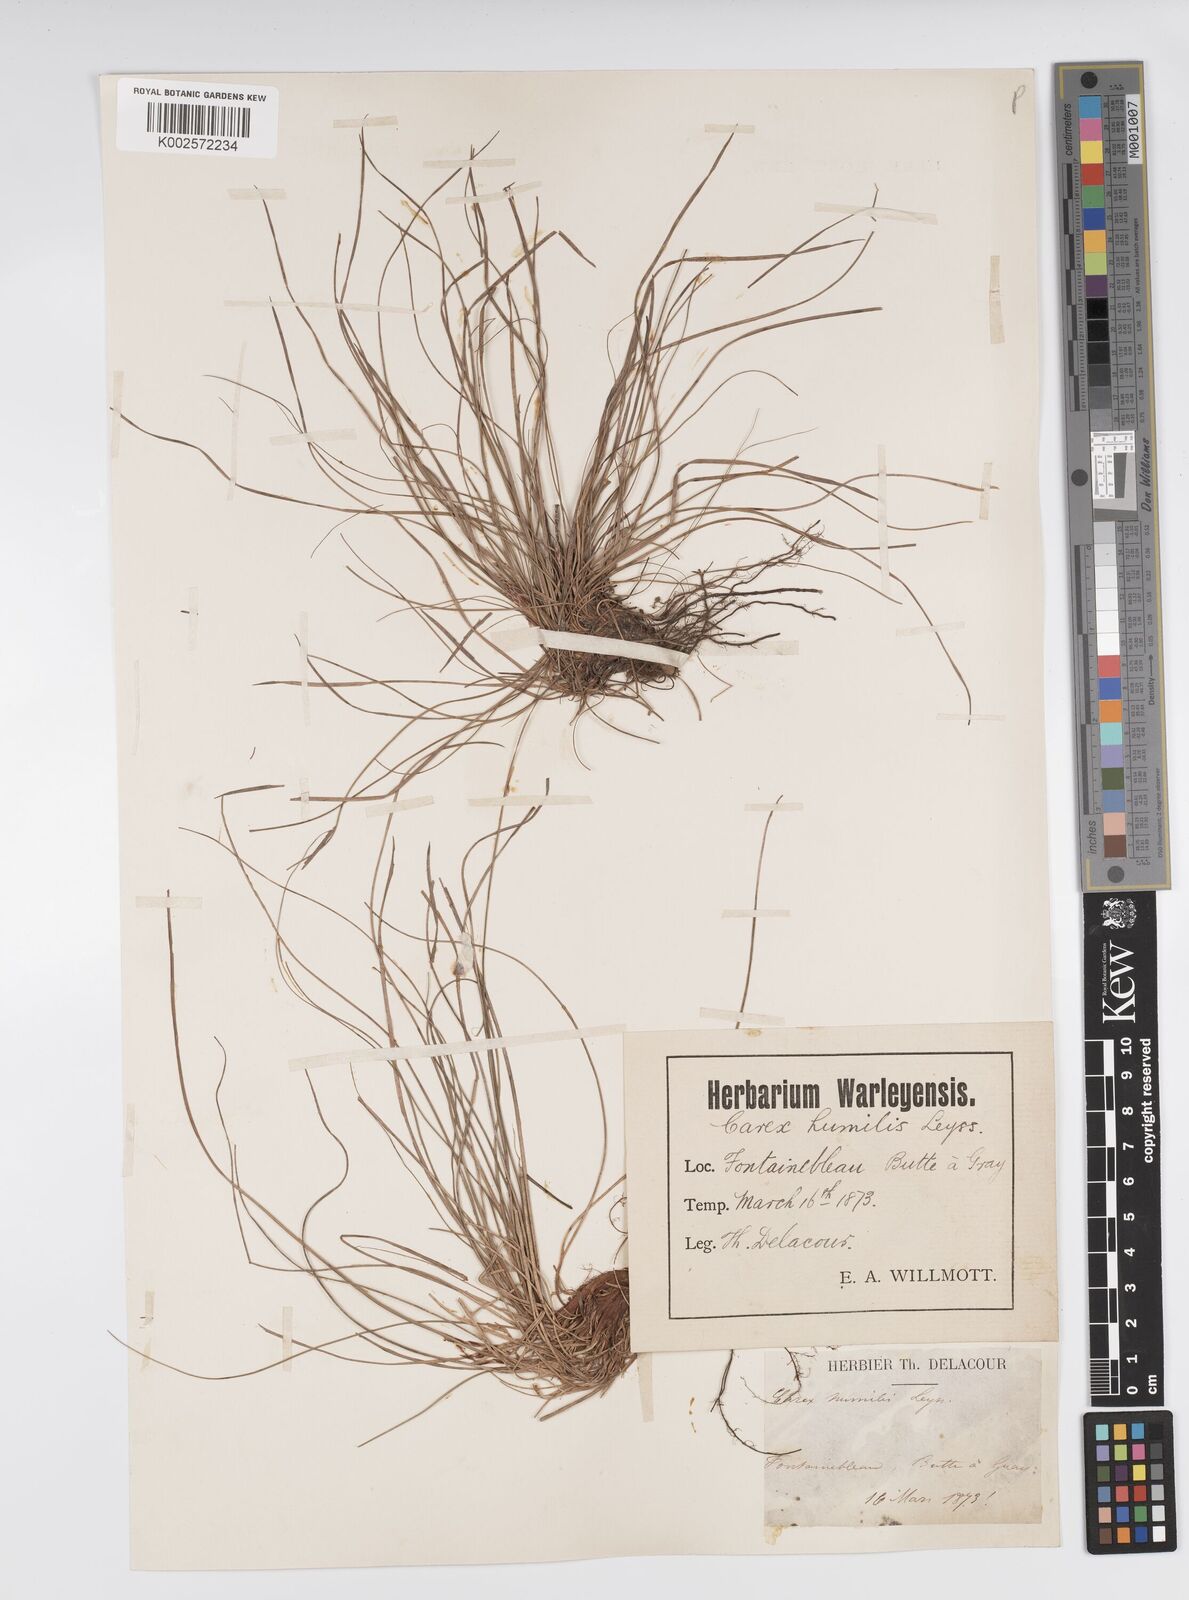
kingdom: Plantae
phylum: Tracheophyta
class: Liliopsida
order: Poales
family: Cyperaceae
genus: Carex
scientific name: Carex humilis
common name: Dwarf sedge
